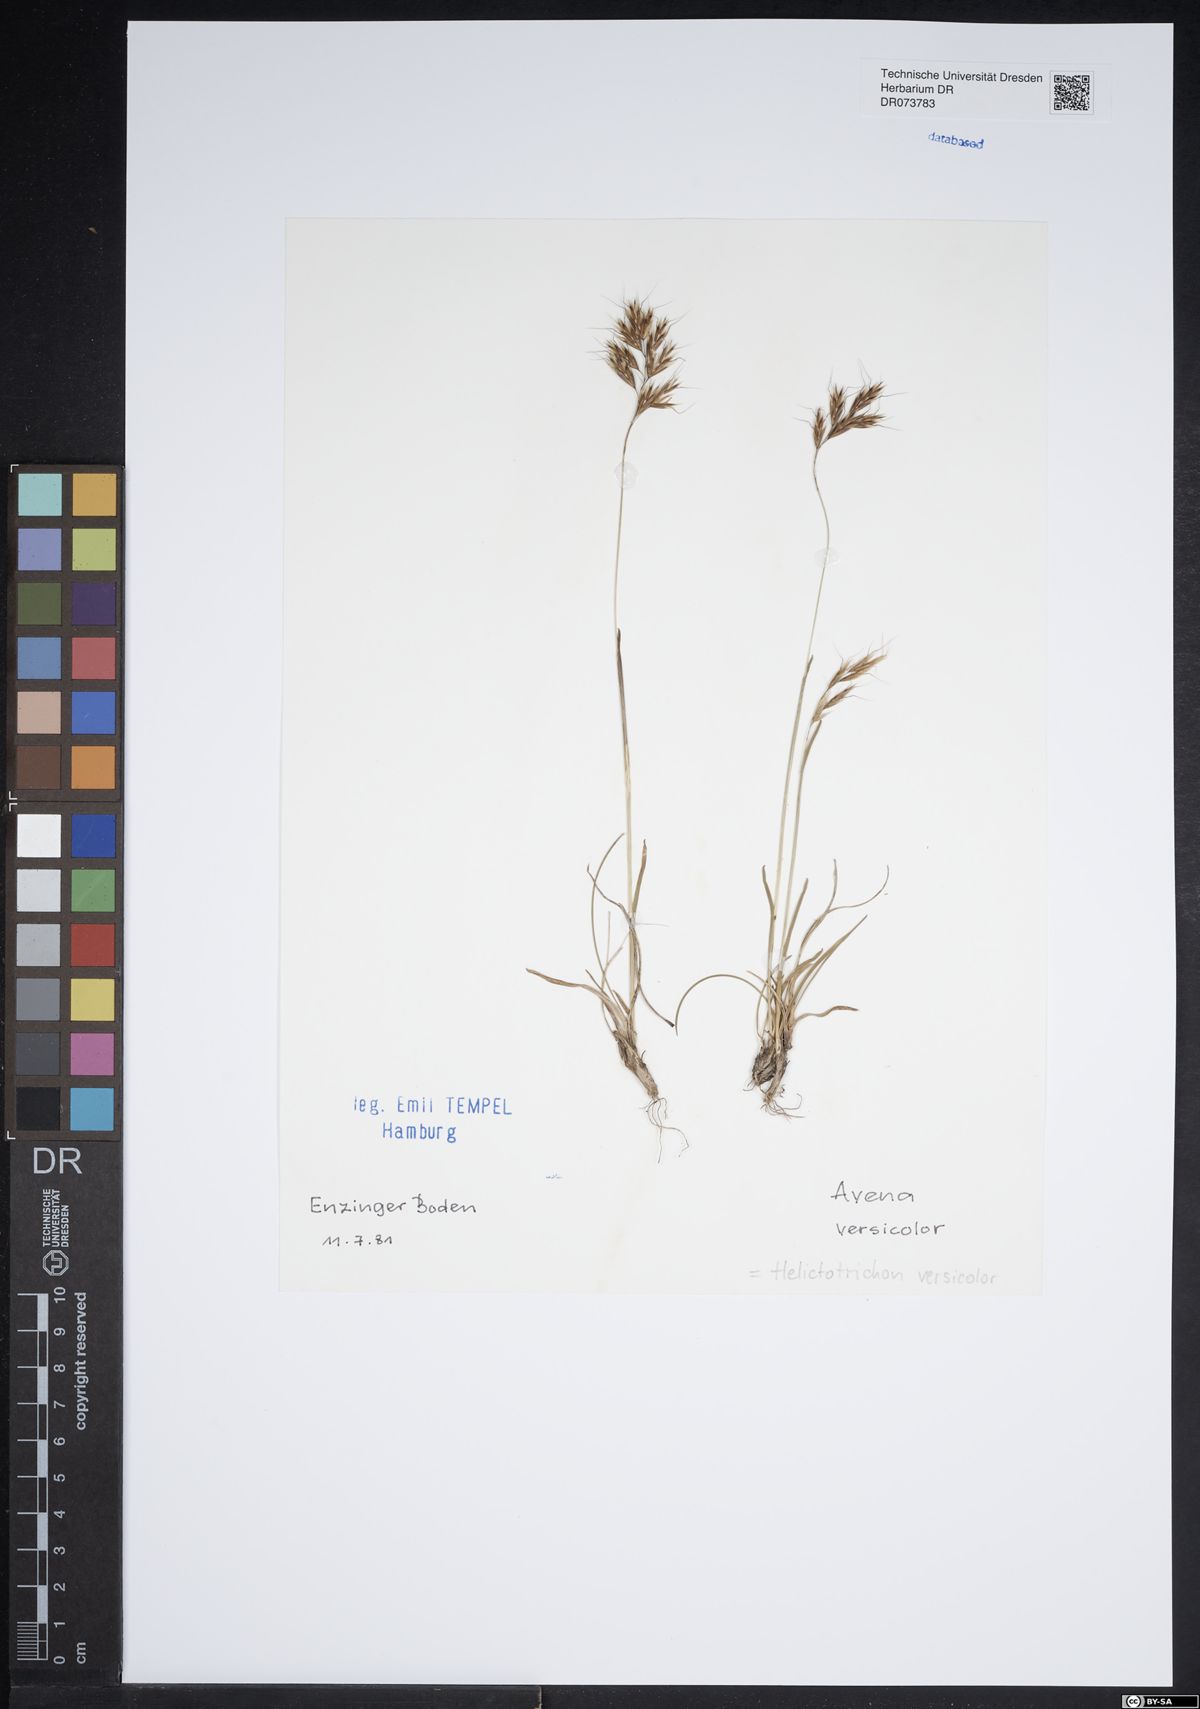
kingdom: Plantae
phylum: Tracheophyta
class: Liliopsida
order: Poales
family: Poaceae
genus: Helictochloa
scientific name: Helictochloa versicolor
